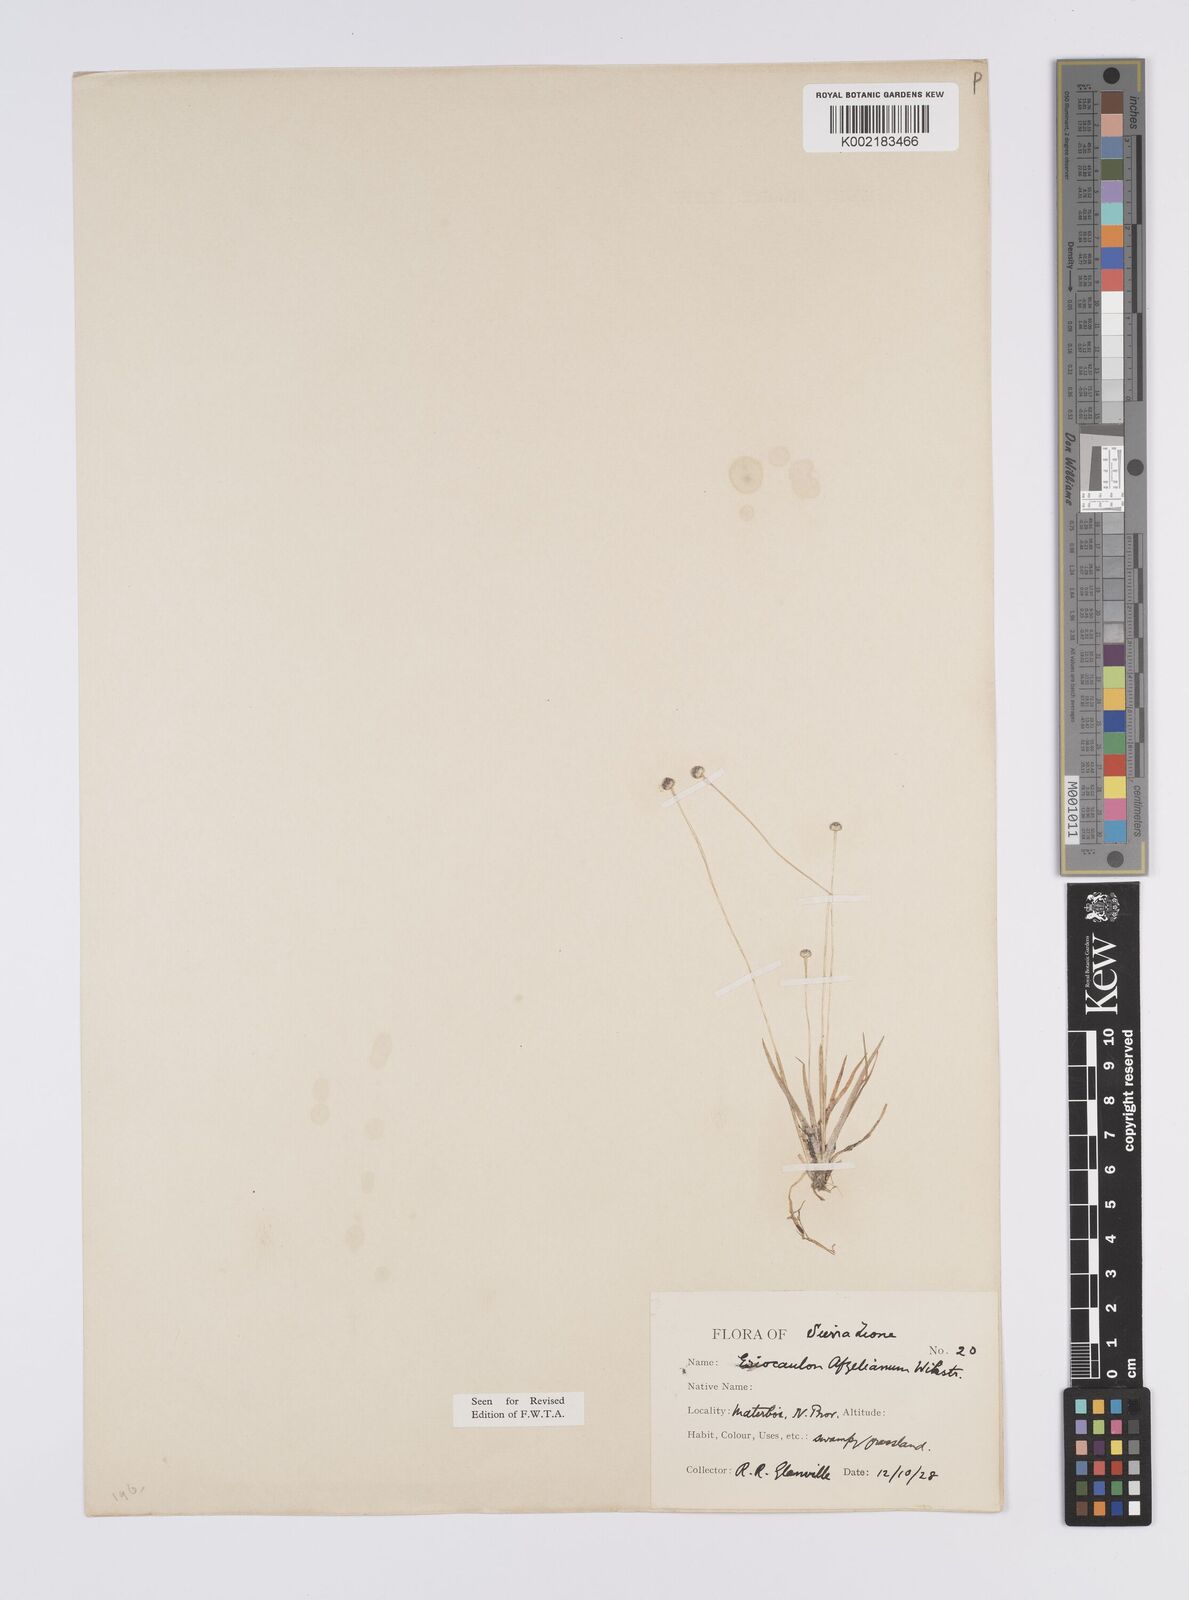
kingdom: Plantae
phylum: Tracheophyta
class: Liliopsida
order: Poales
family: Eriocaulaceae
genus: Eriocaulon
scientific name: Eriocaulon afzelianum
